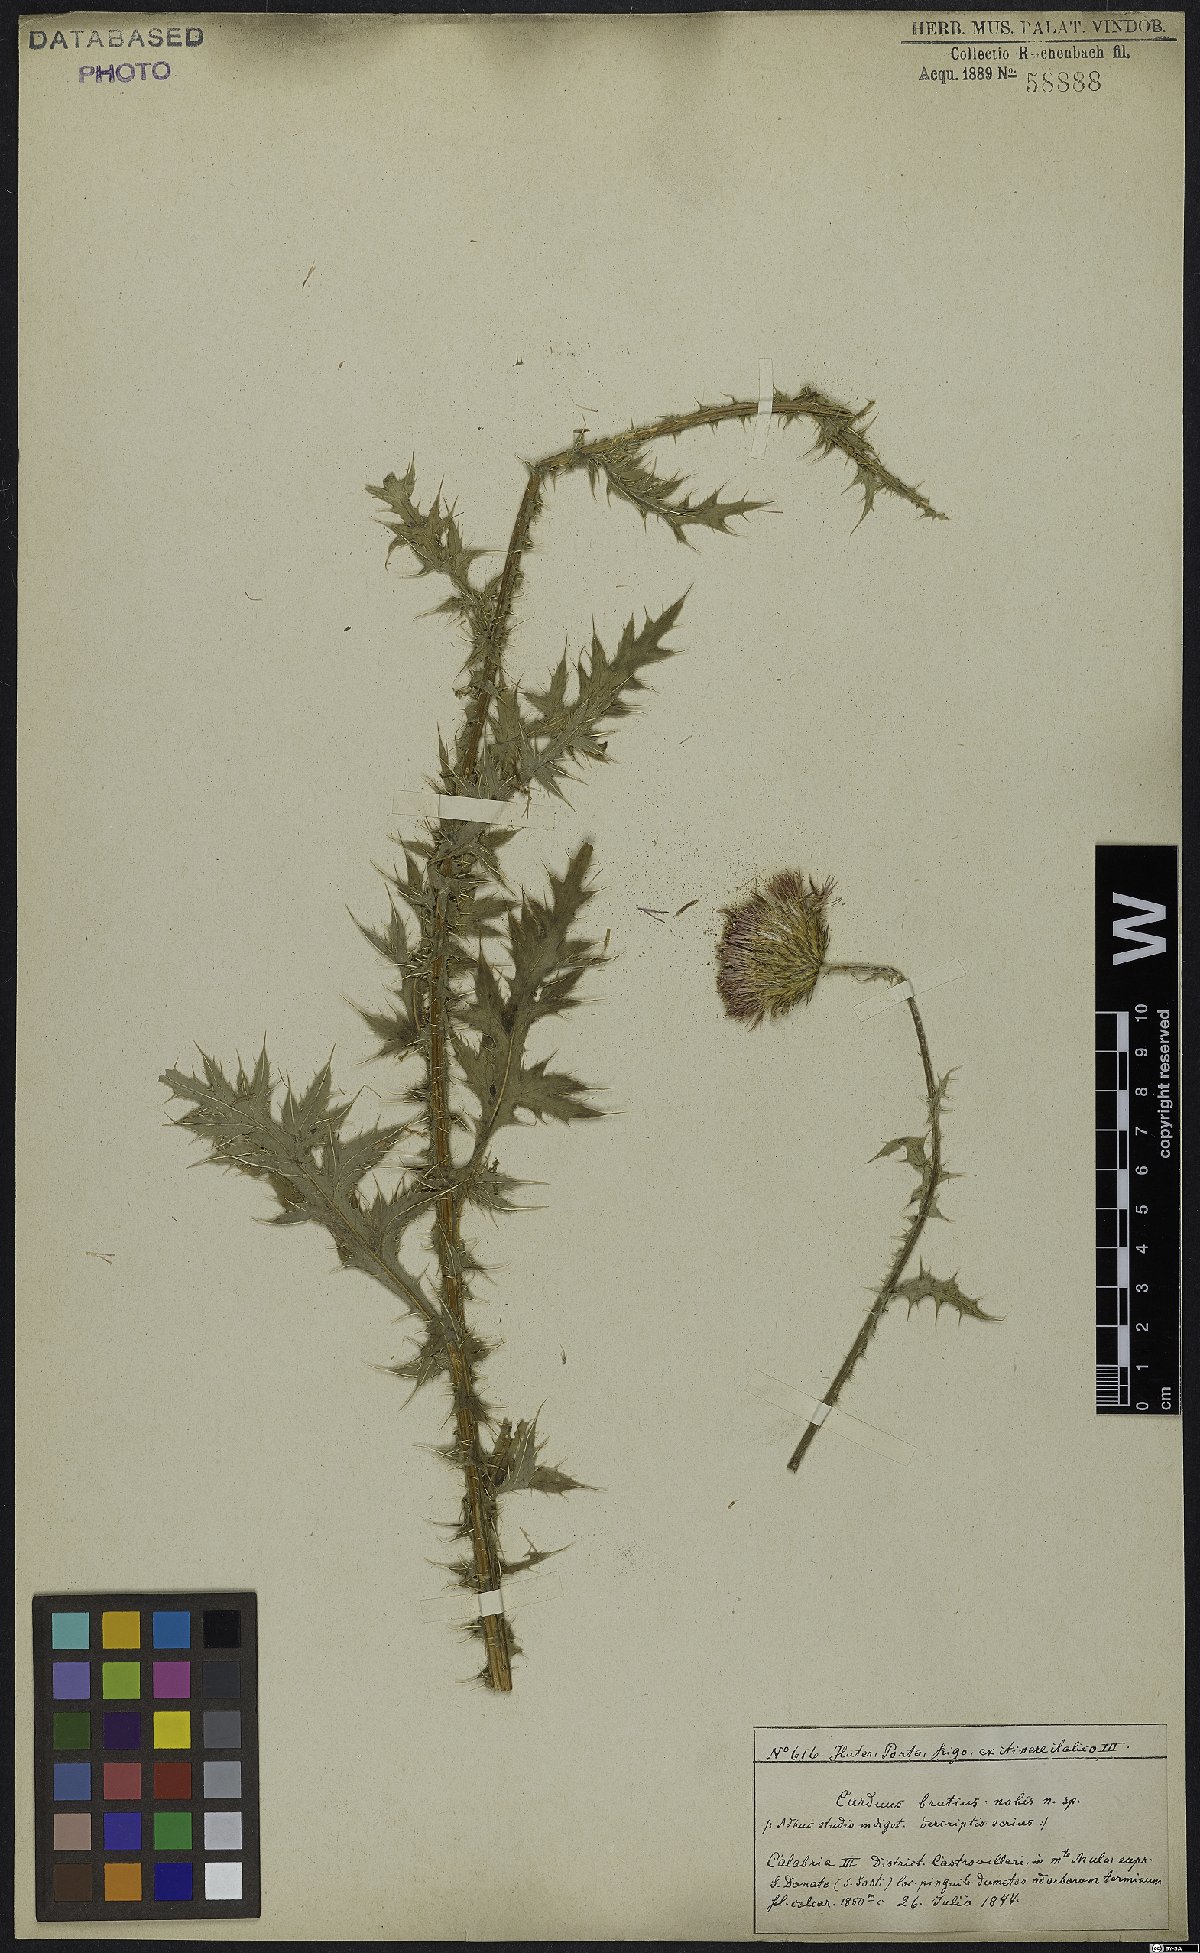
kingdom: Plantae
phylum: Tracheophyta
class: Magnoliopsida
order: Asterales
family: Asteraceae
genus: Carduus
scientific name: Carduus affinis
